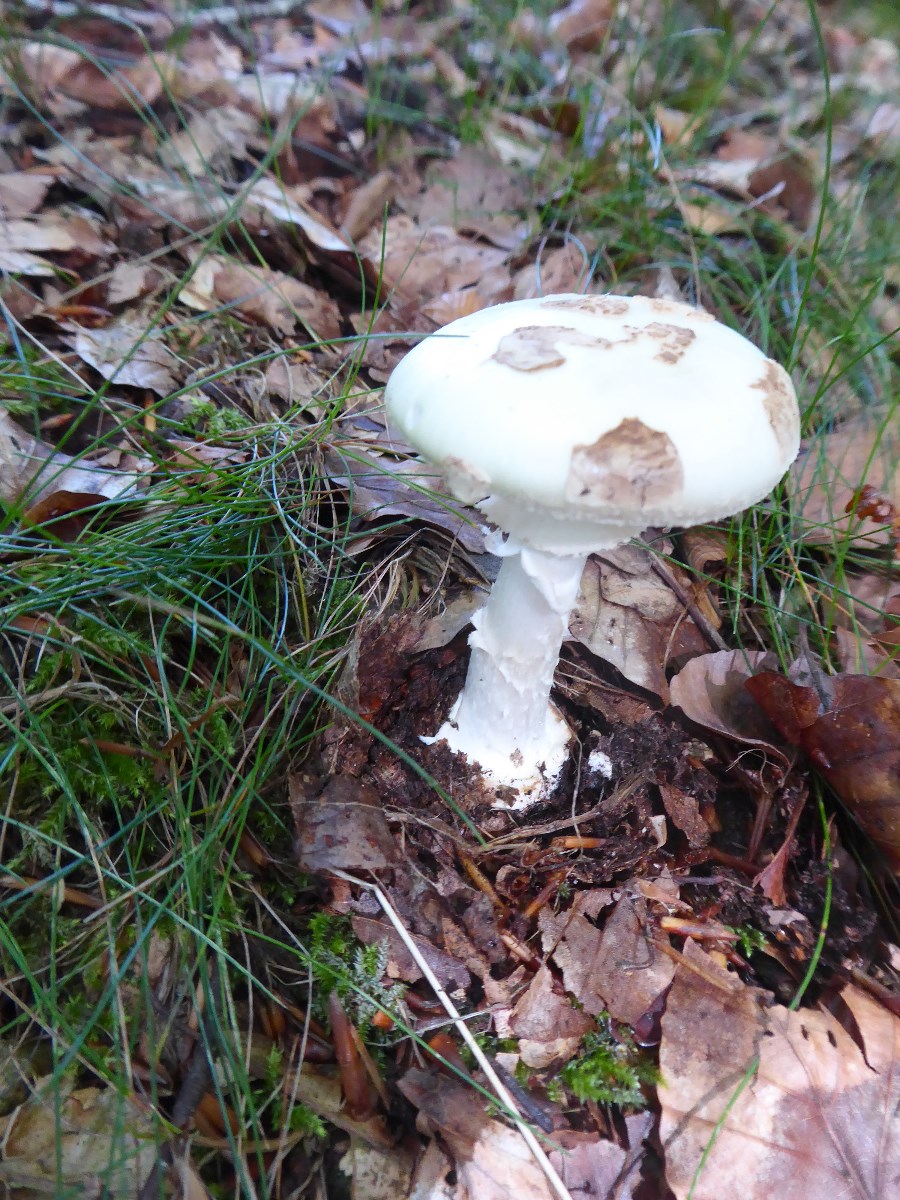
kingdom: Fungi
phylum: Basidiomycota
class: Agaricomycetes
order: Agaricales
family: Amanitaceae
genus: Amanita
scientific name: Amanita citrina
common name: kugleknoldet fluesvamp
